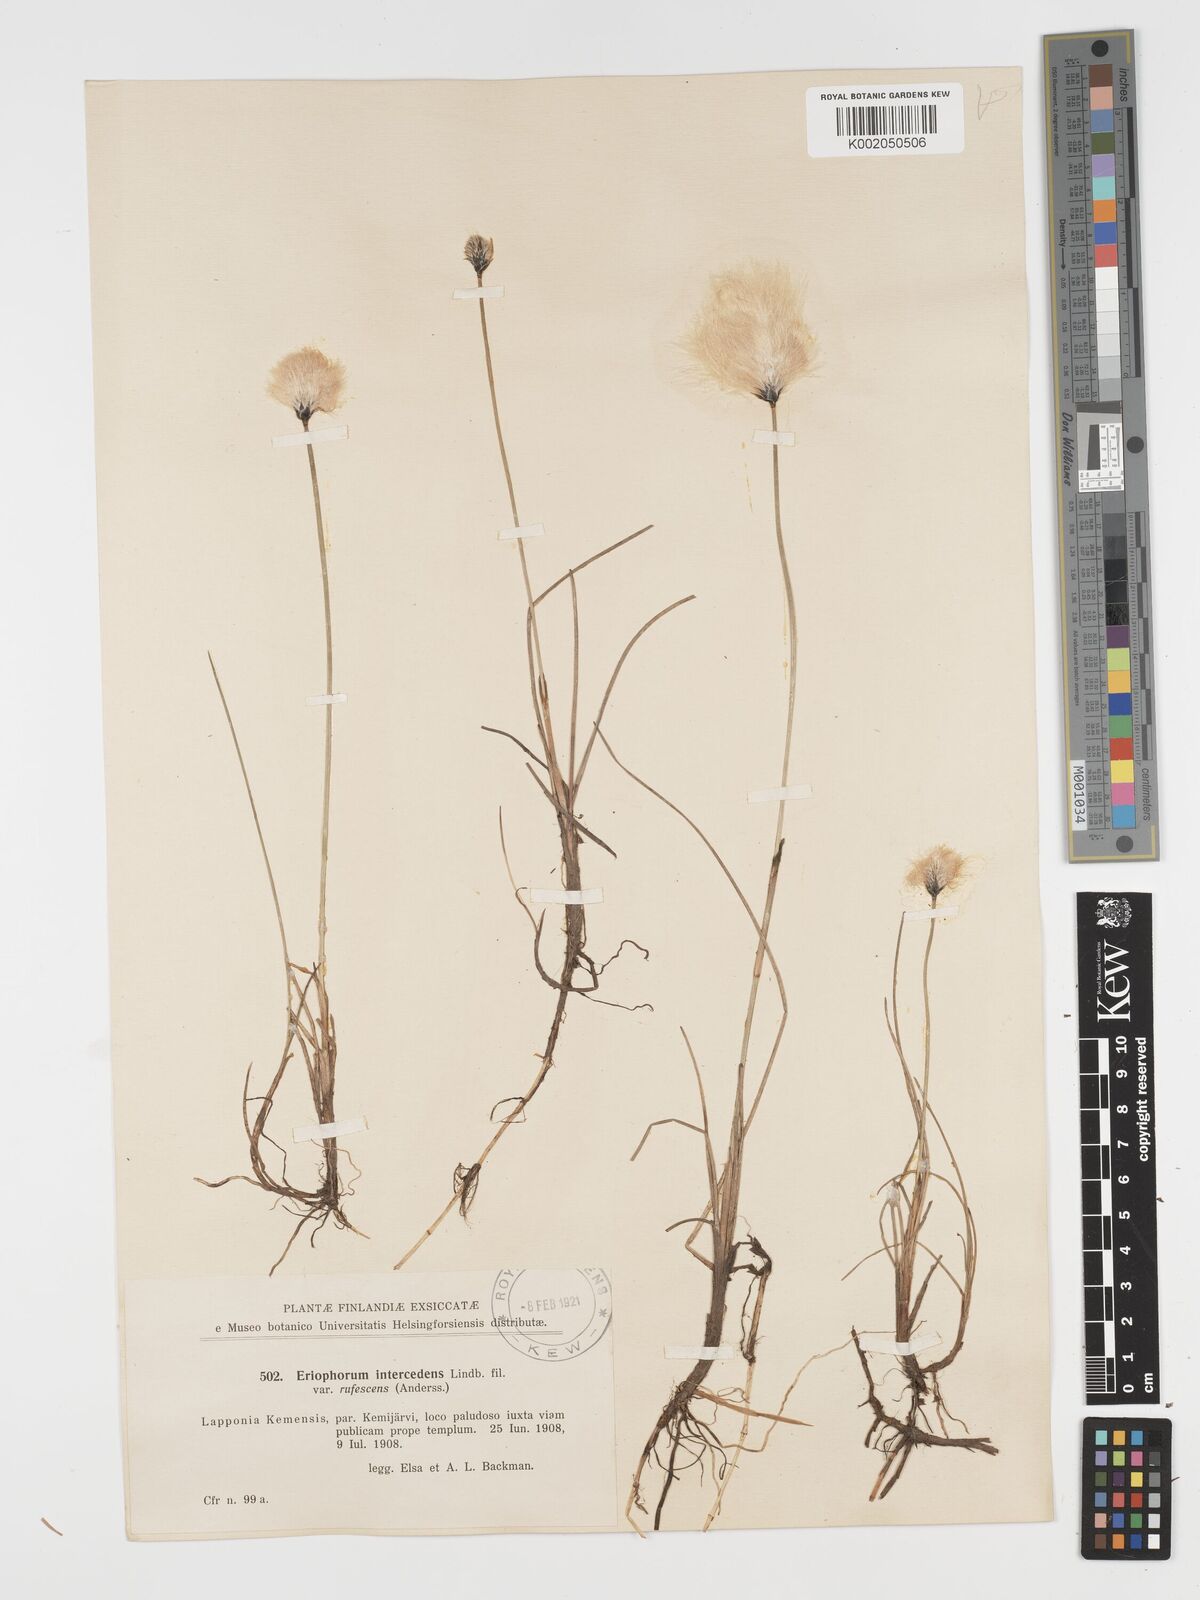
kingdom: Plantae
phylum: Tracheophyta
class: Liliopsida
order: Poales
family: Cyperaceae
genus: Eriophorum
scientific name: Eriophorum medium
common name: Intermediate cottongrass
